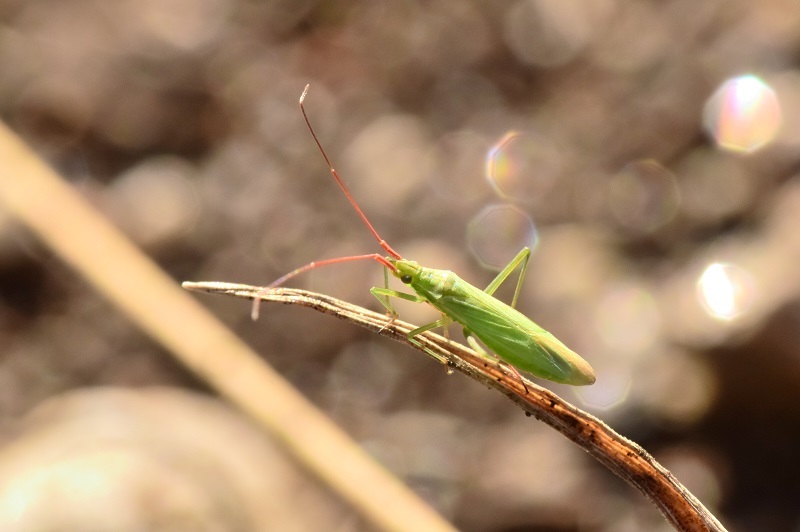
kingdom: Animalia
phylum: Arthropoda
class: Insecta
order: Hemiptera
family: Miridae
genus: Trigonotylus
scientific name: Trigonotylus caelestialium
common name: Rice leaf bug
